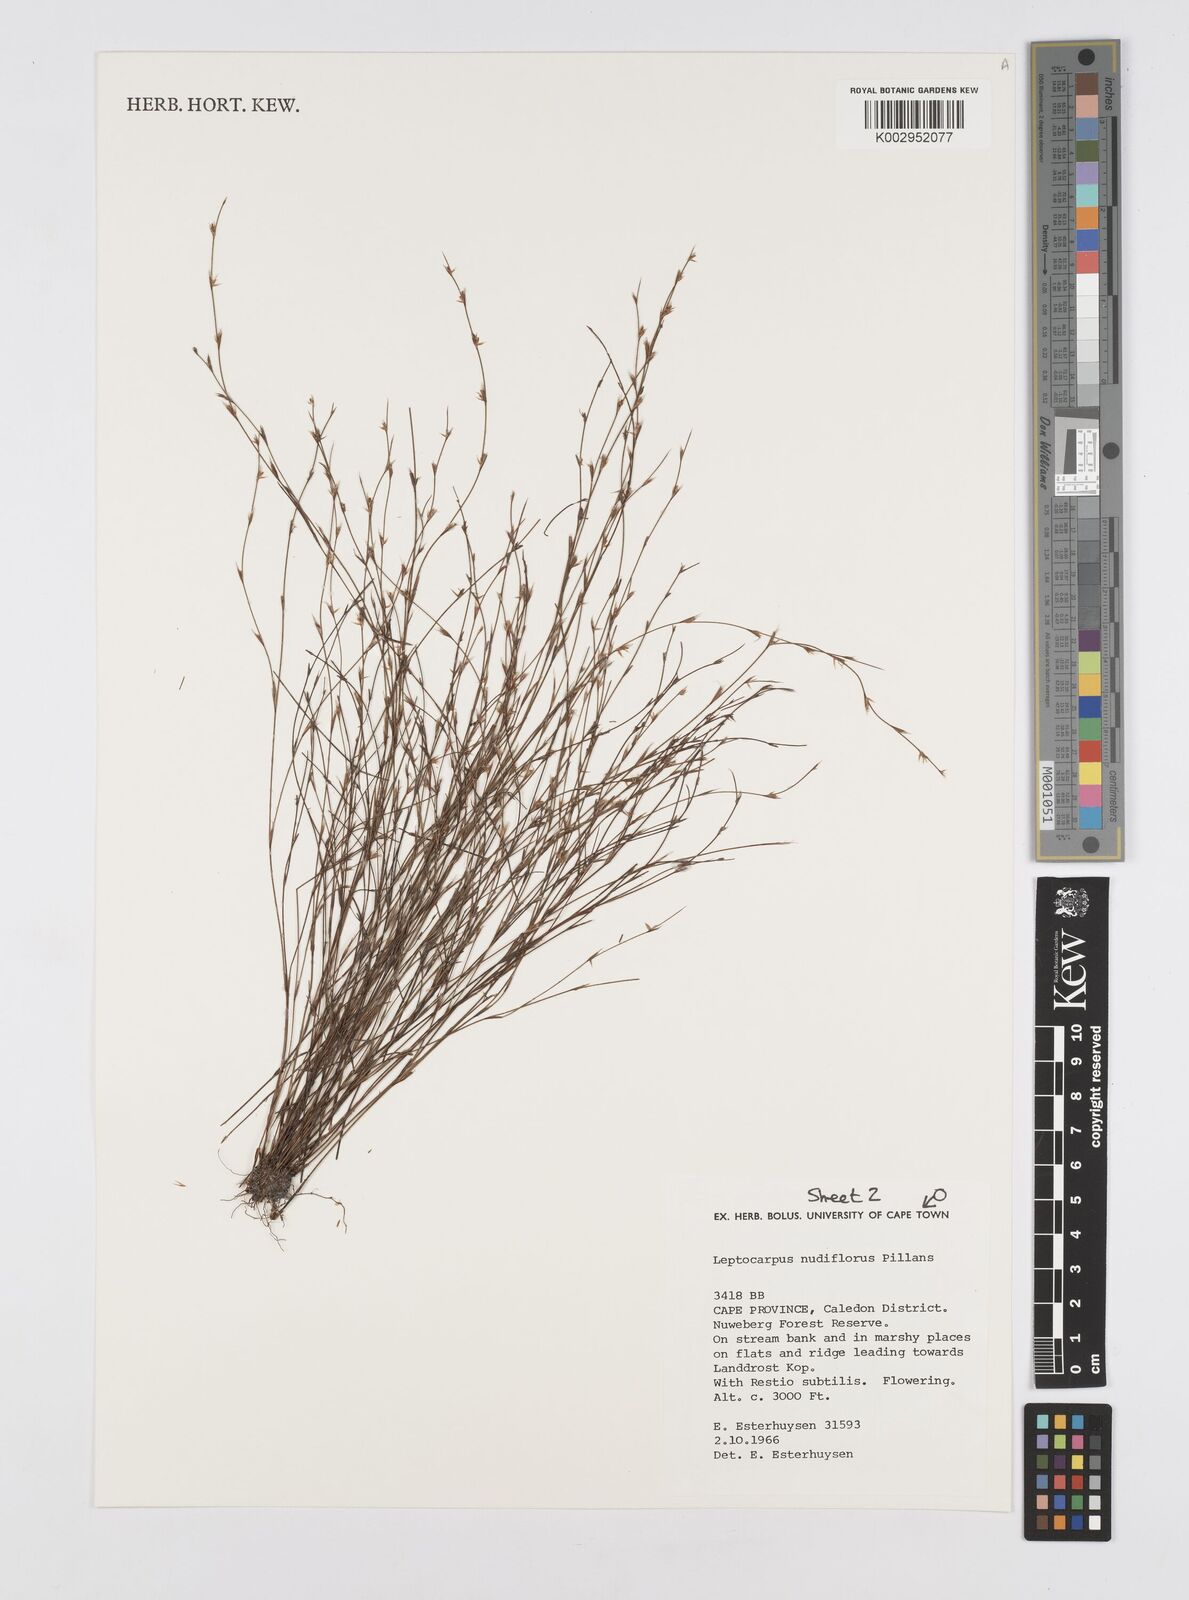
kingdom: Plantae
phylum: Tracheophyta
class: Liliopsida
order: Poales
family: Restionaceae
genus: Restio
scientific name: Restio nudiflorus
